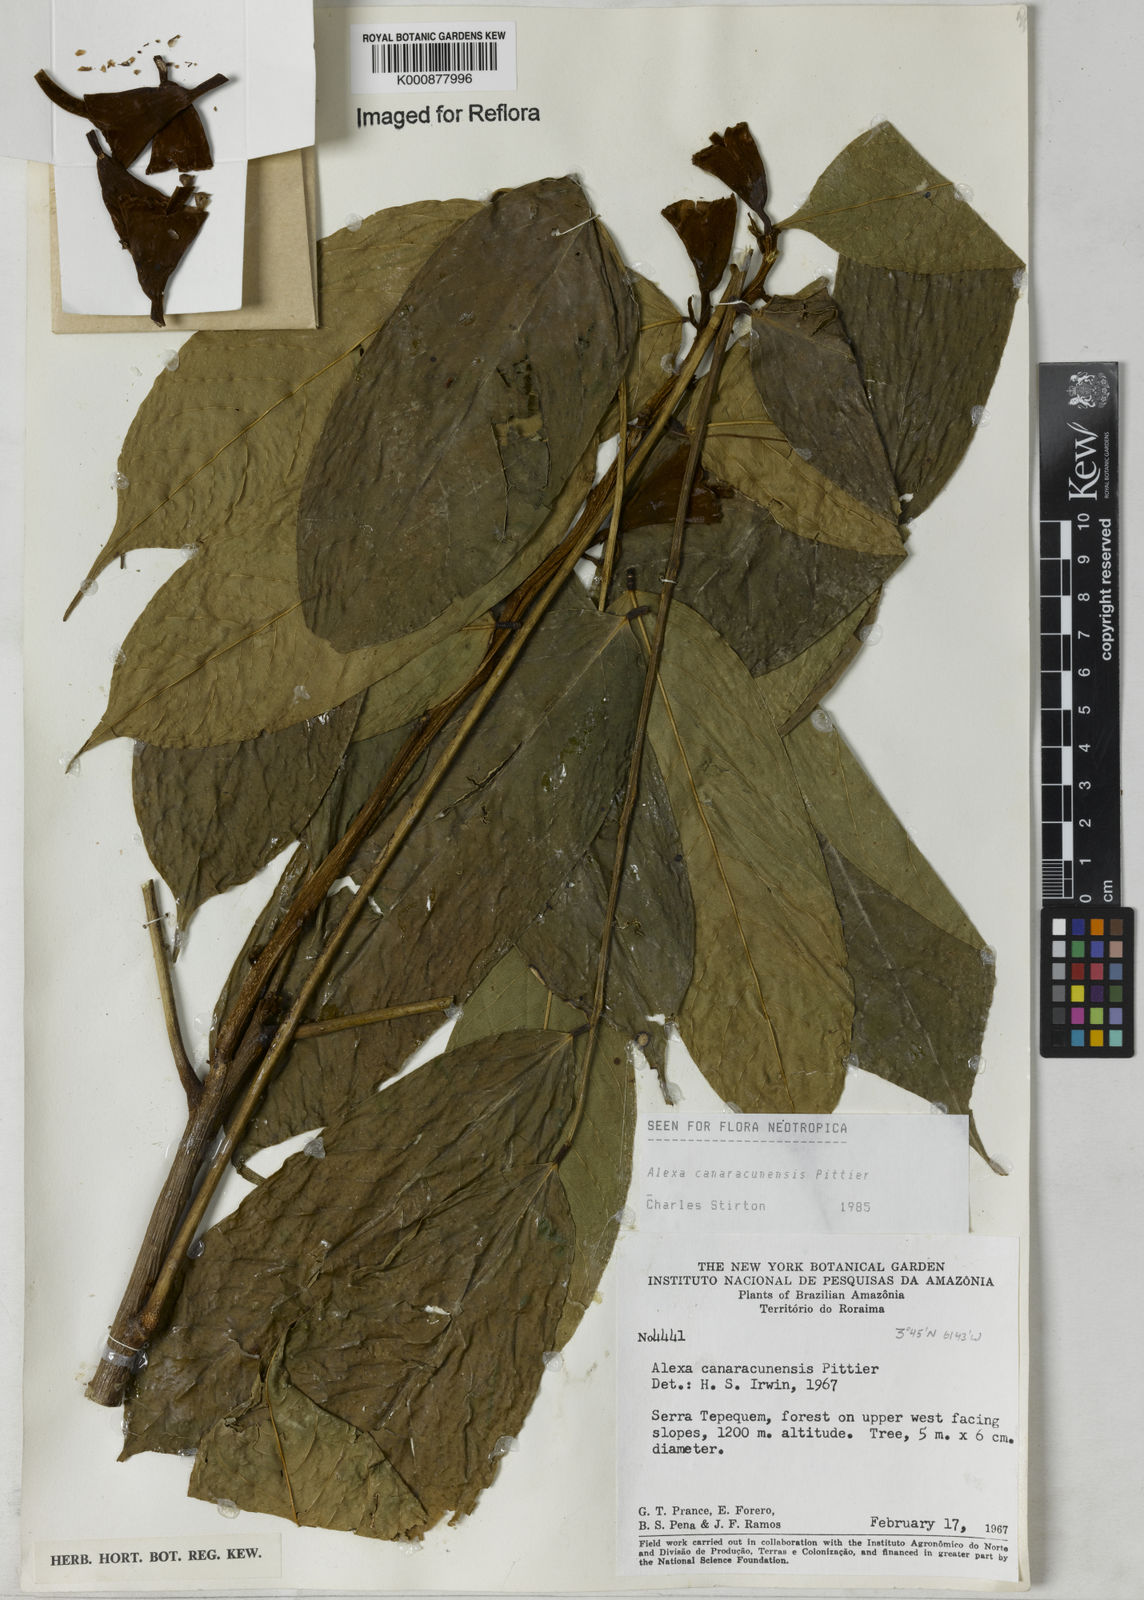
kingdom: Plantae
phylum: Tracheophyta
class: Magnoliopsida
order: Fabales
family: Fabaceae
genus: Alexa
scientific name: Alexa canaracunensis
